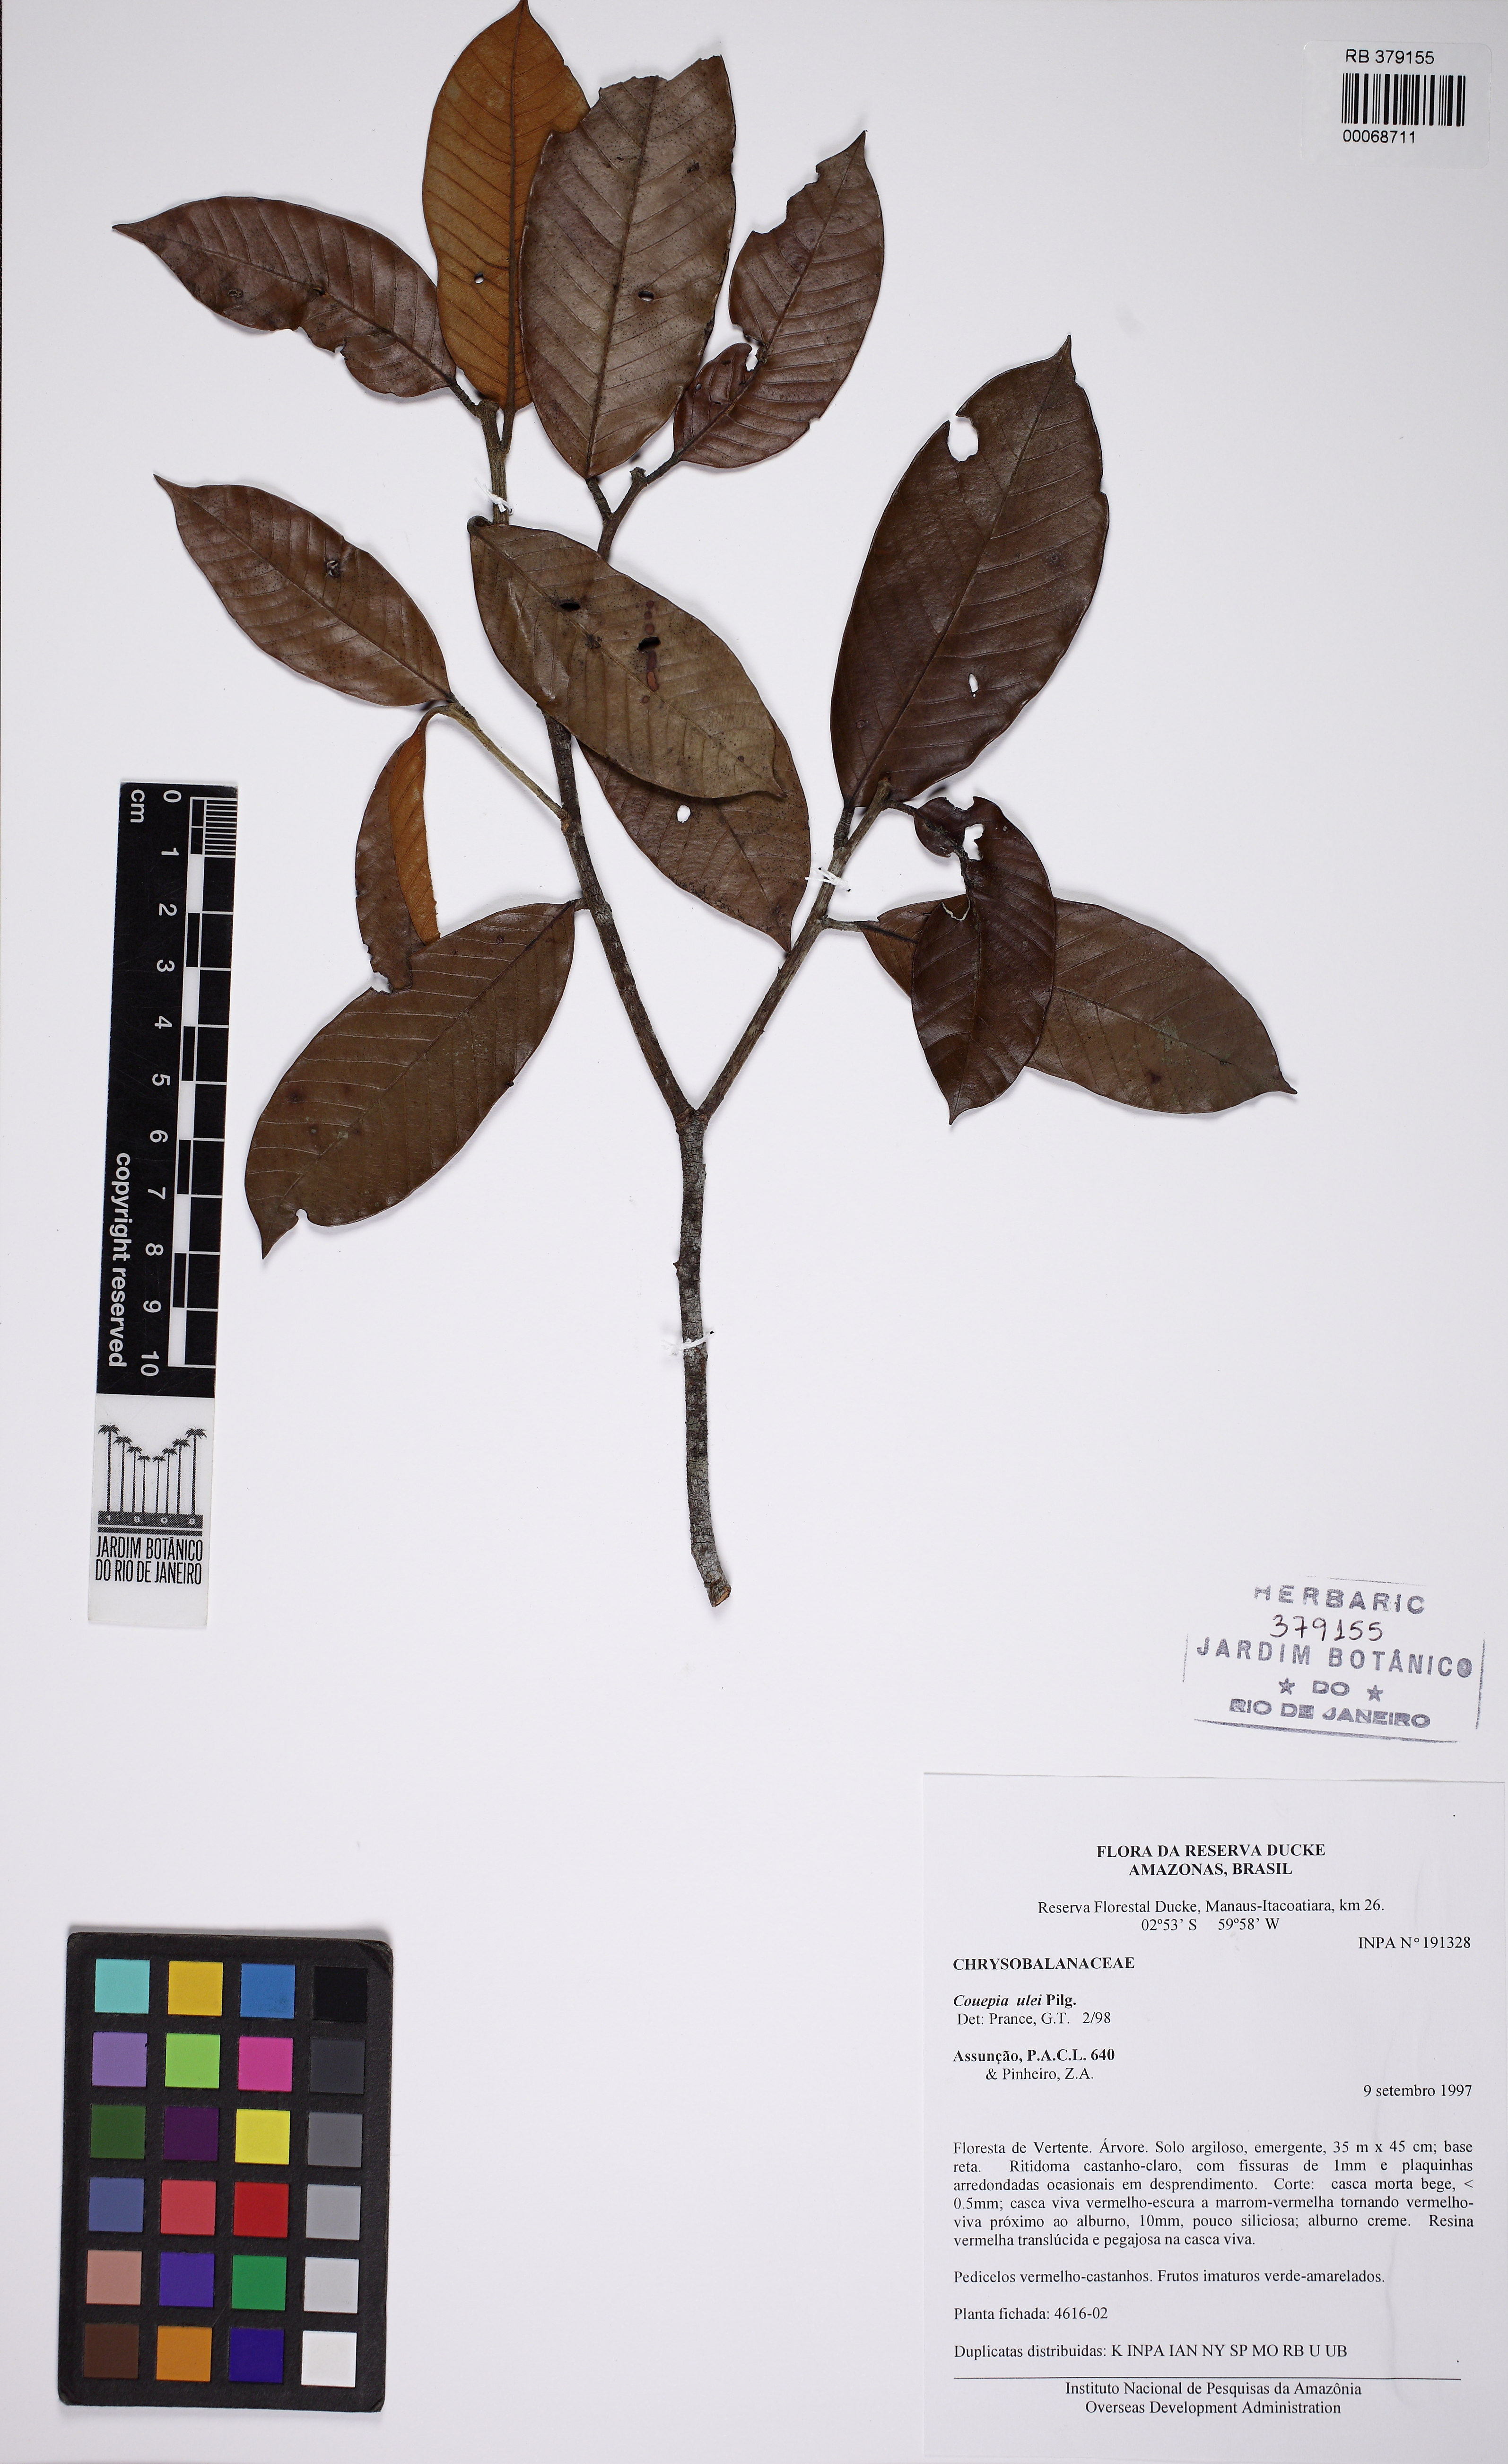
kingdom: Plantae
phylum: Tracheophyta
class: Magnoliopsida
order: Malpighiales
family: Chrysobalanaceae
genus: Couepia
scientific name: Couepia ulei
